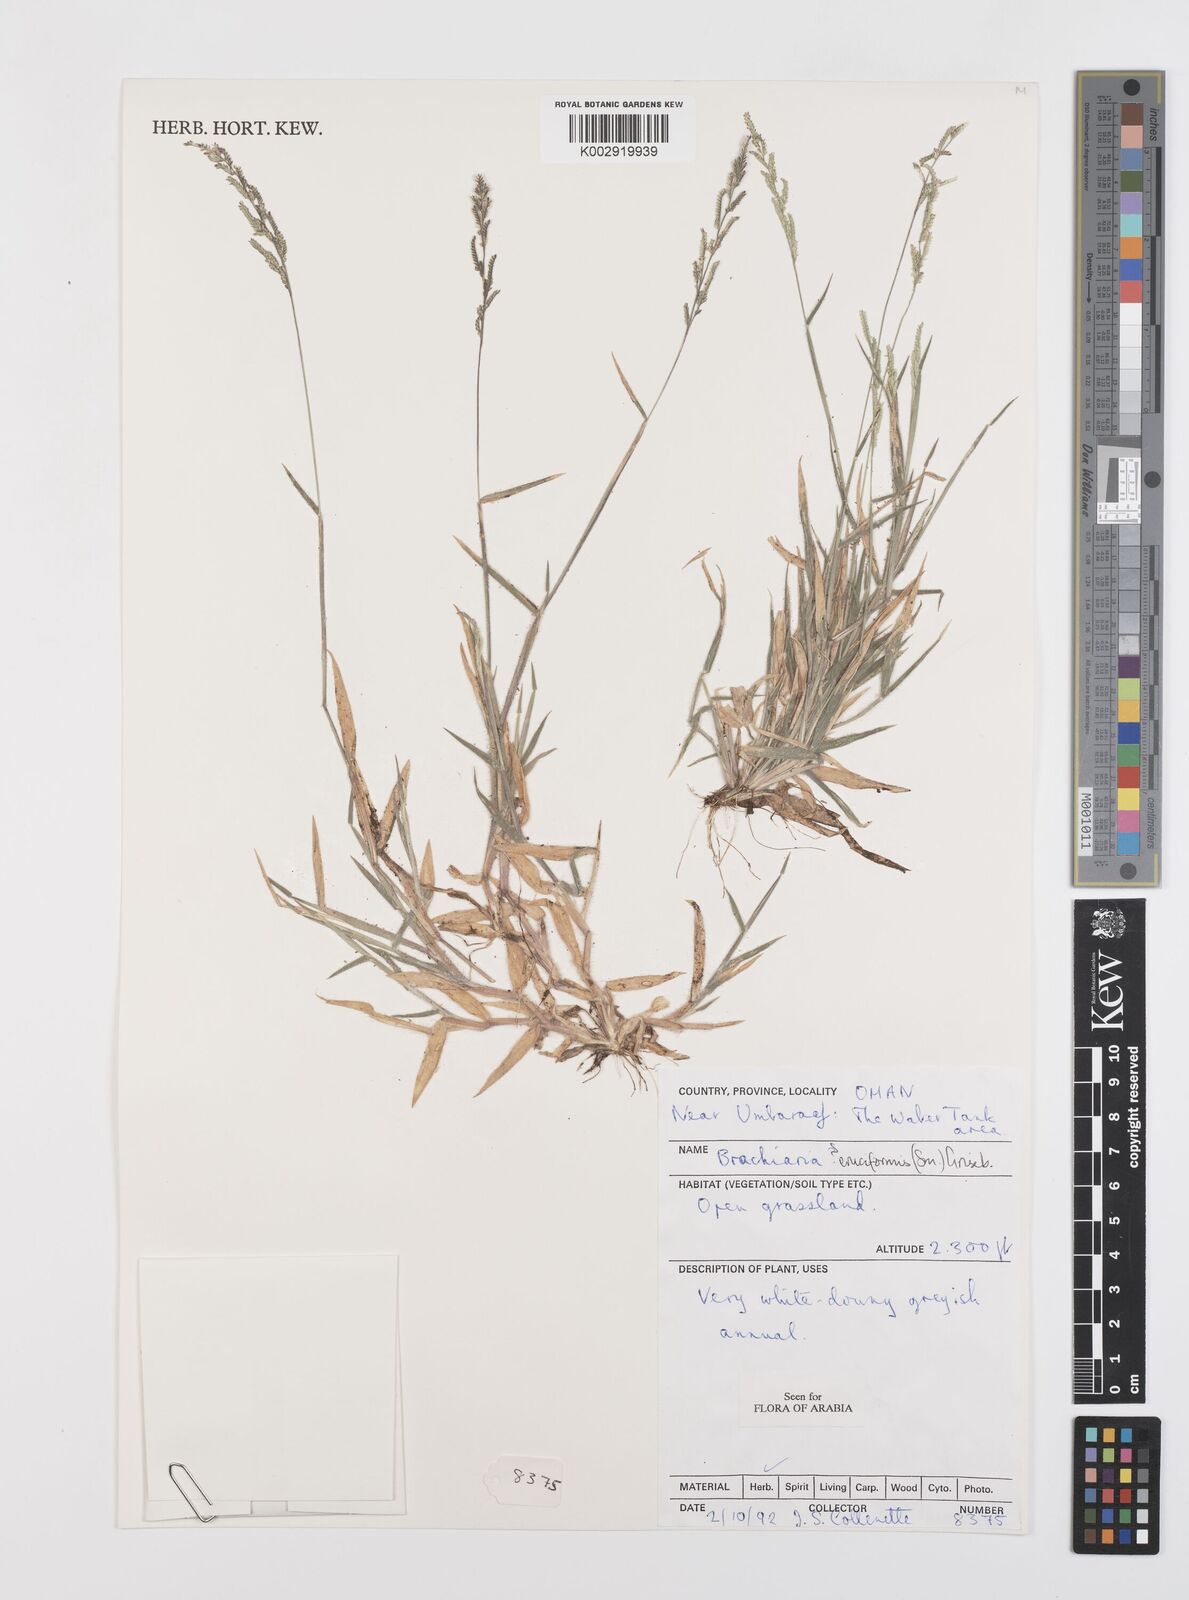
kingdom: Plantae
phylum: Tracheophyta
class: Liliopsida
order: Poales
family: Poaceae
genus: Moorochloa
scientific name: Moorochloa eruciformis
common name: Sweet signalgrass
